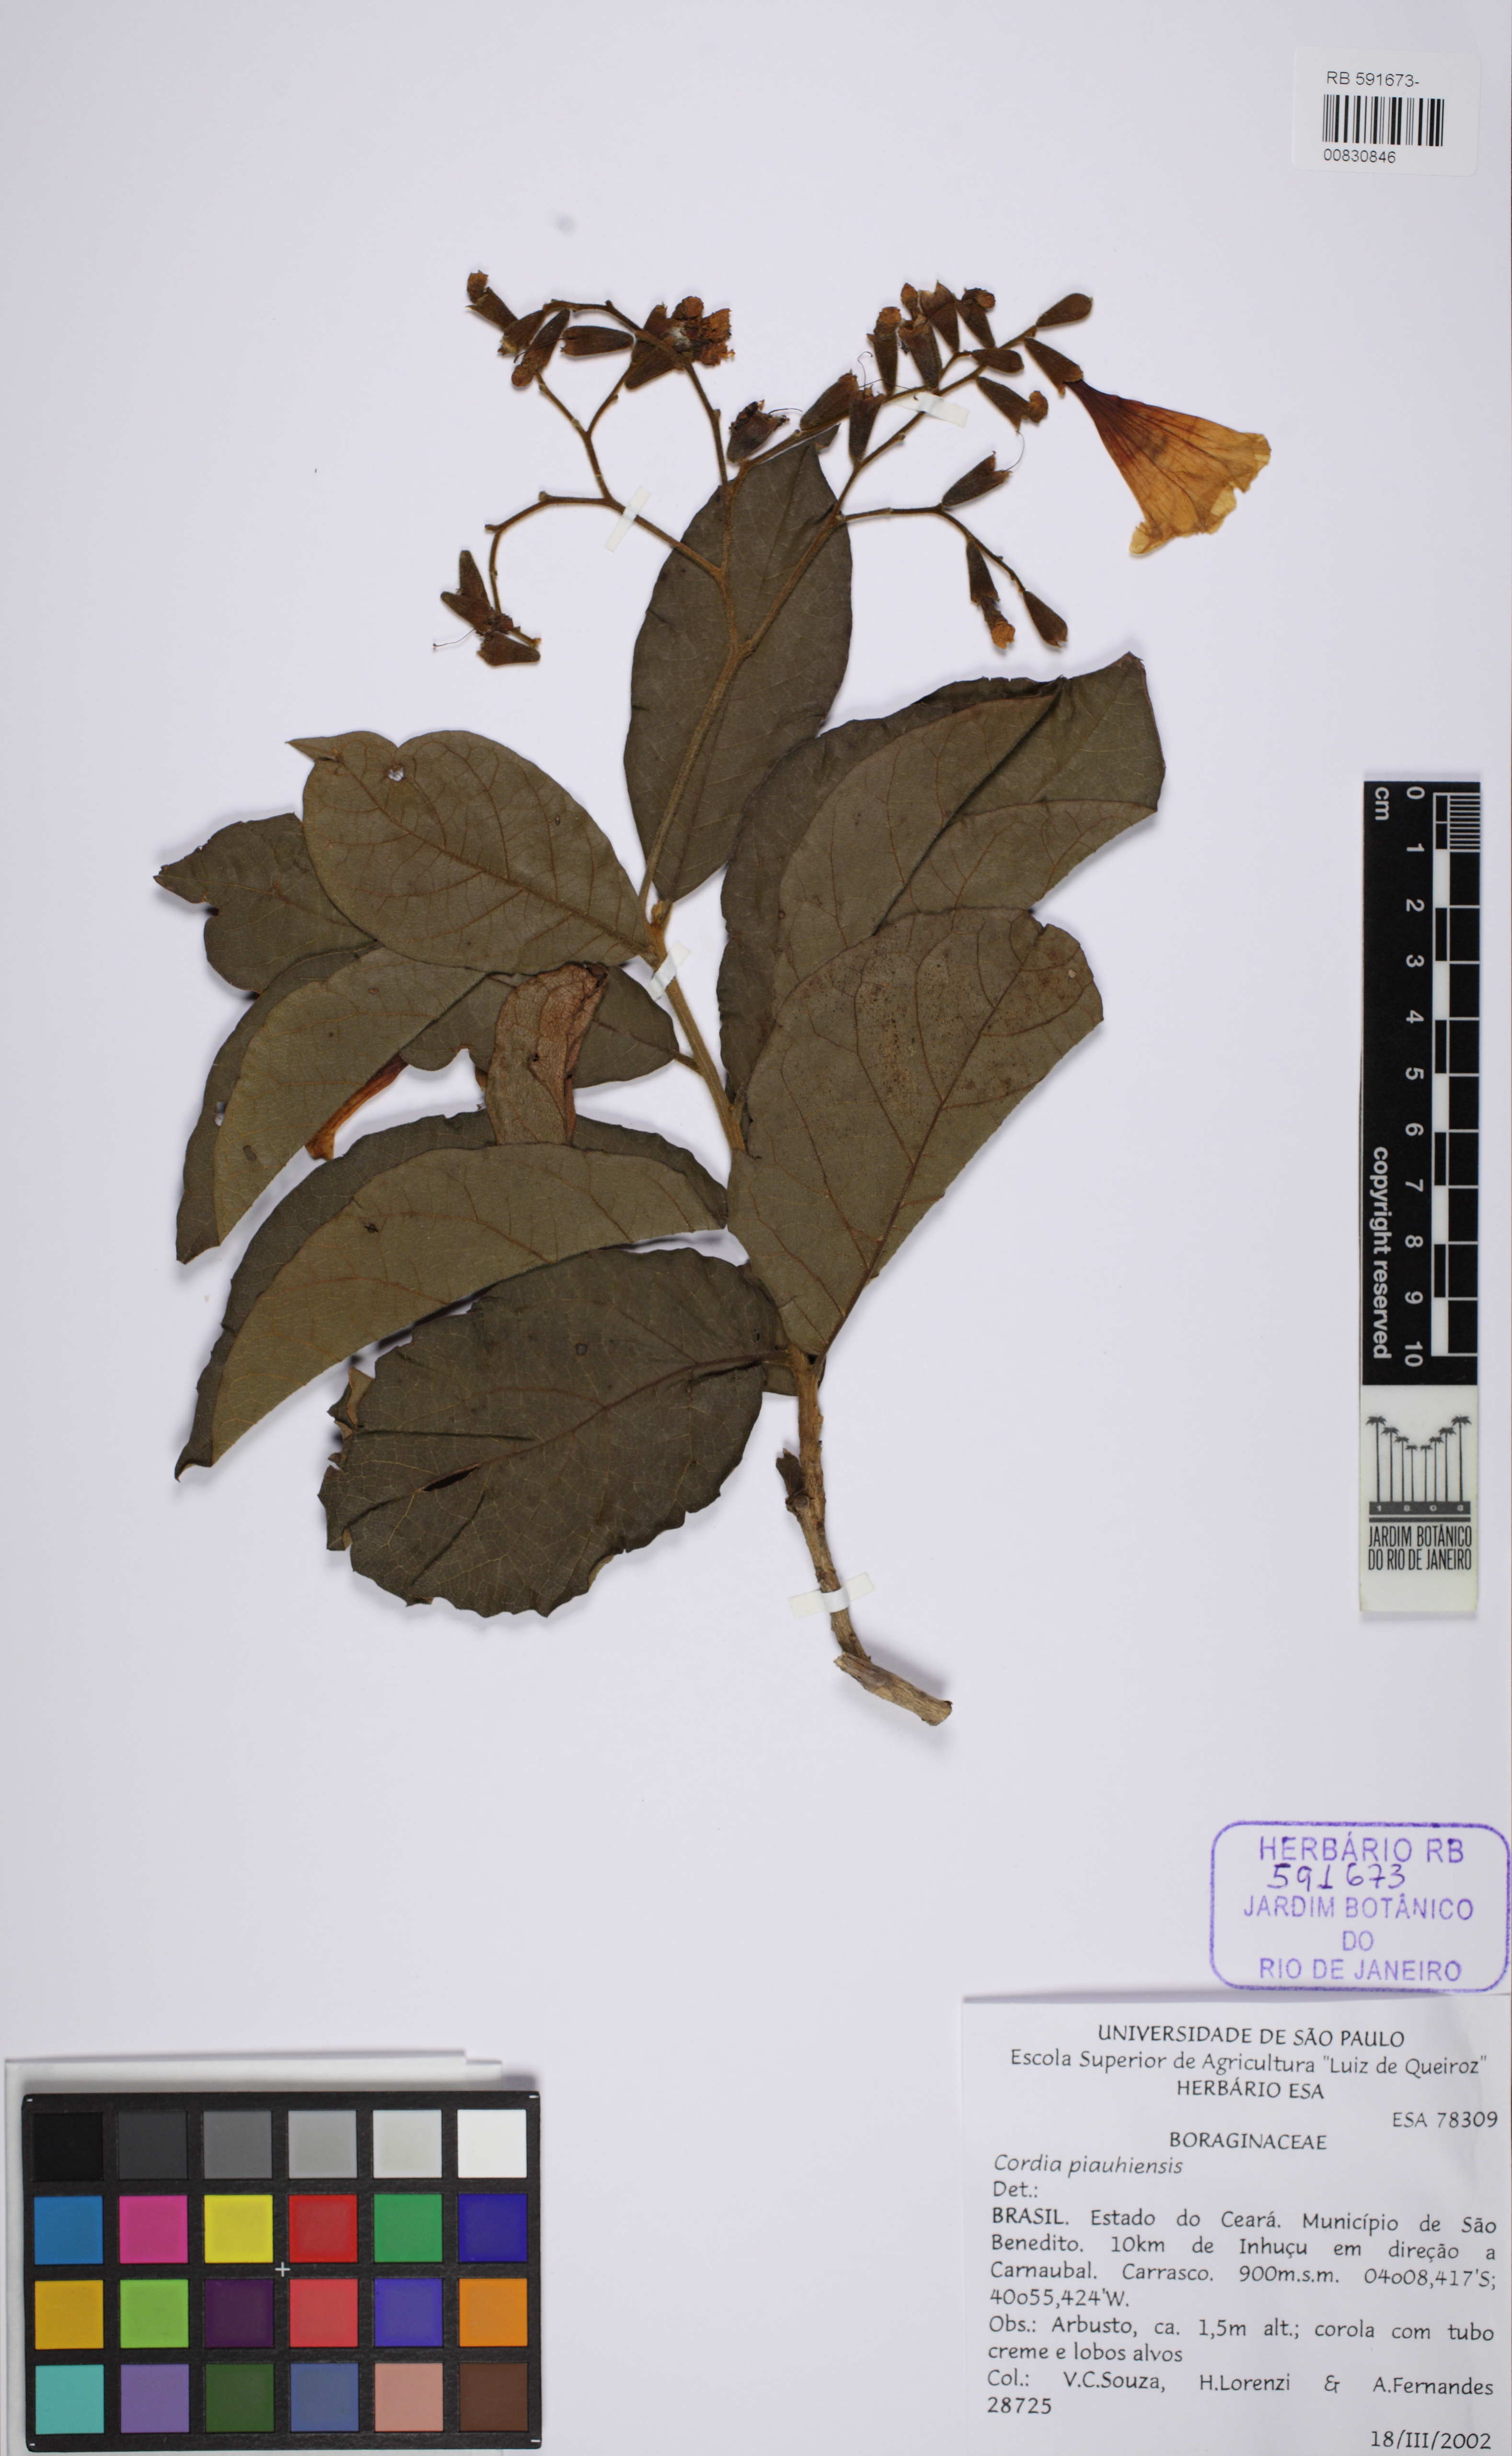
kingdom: Plantae
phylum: Tracheophyta
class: Magnoliopsida
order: Boraginales
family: Cordiaceae
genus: Cordia
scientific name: Cordia rufescens
